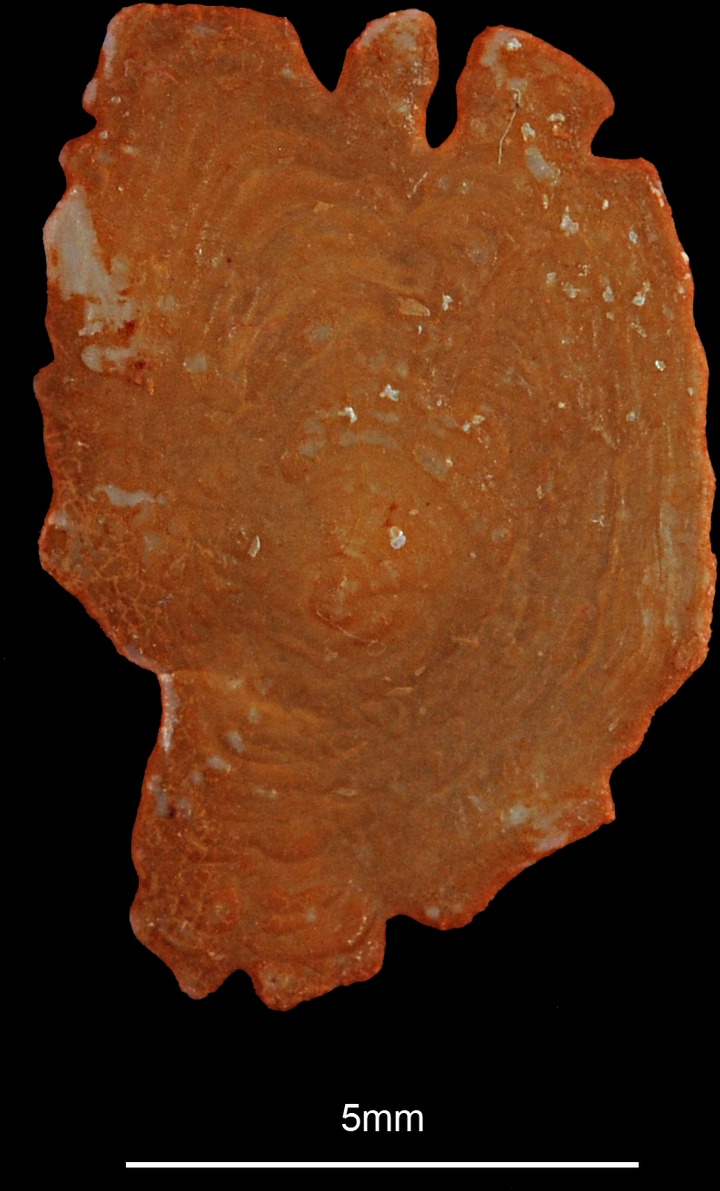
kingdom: Animalia
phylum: Chordata
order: Pleuronectiformes
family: Pleuronectidae
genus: Hippoglossus
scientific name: Hippoglossus hippoglossus
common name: Atlantic halibut
